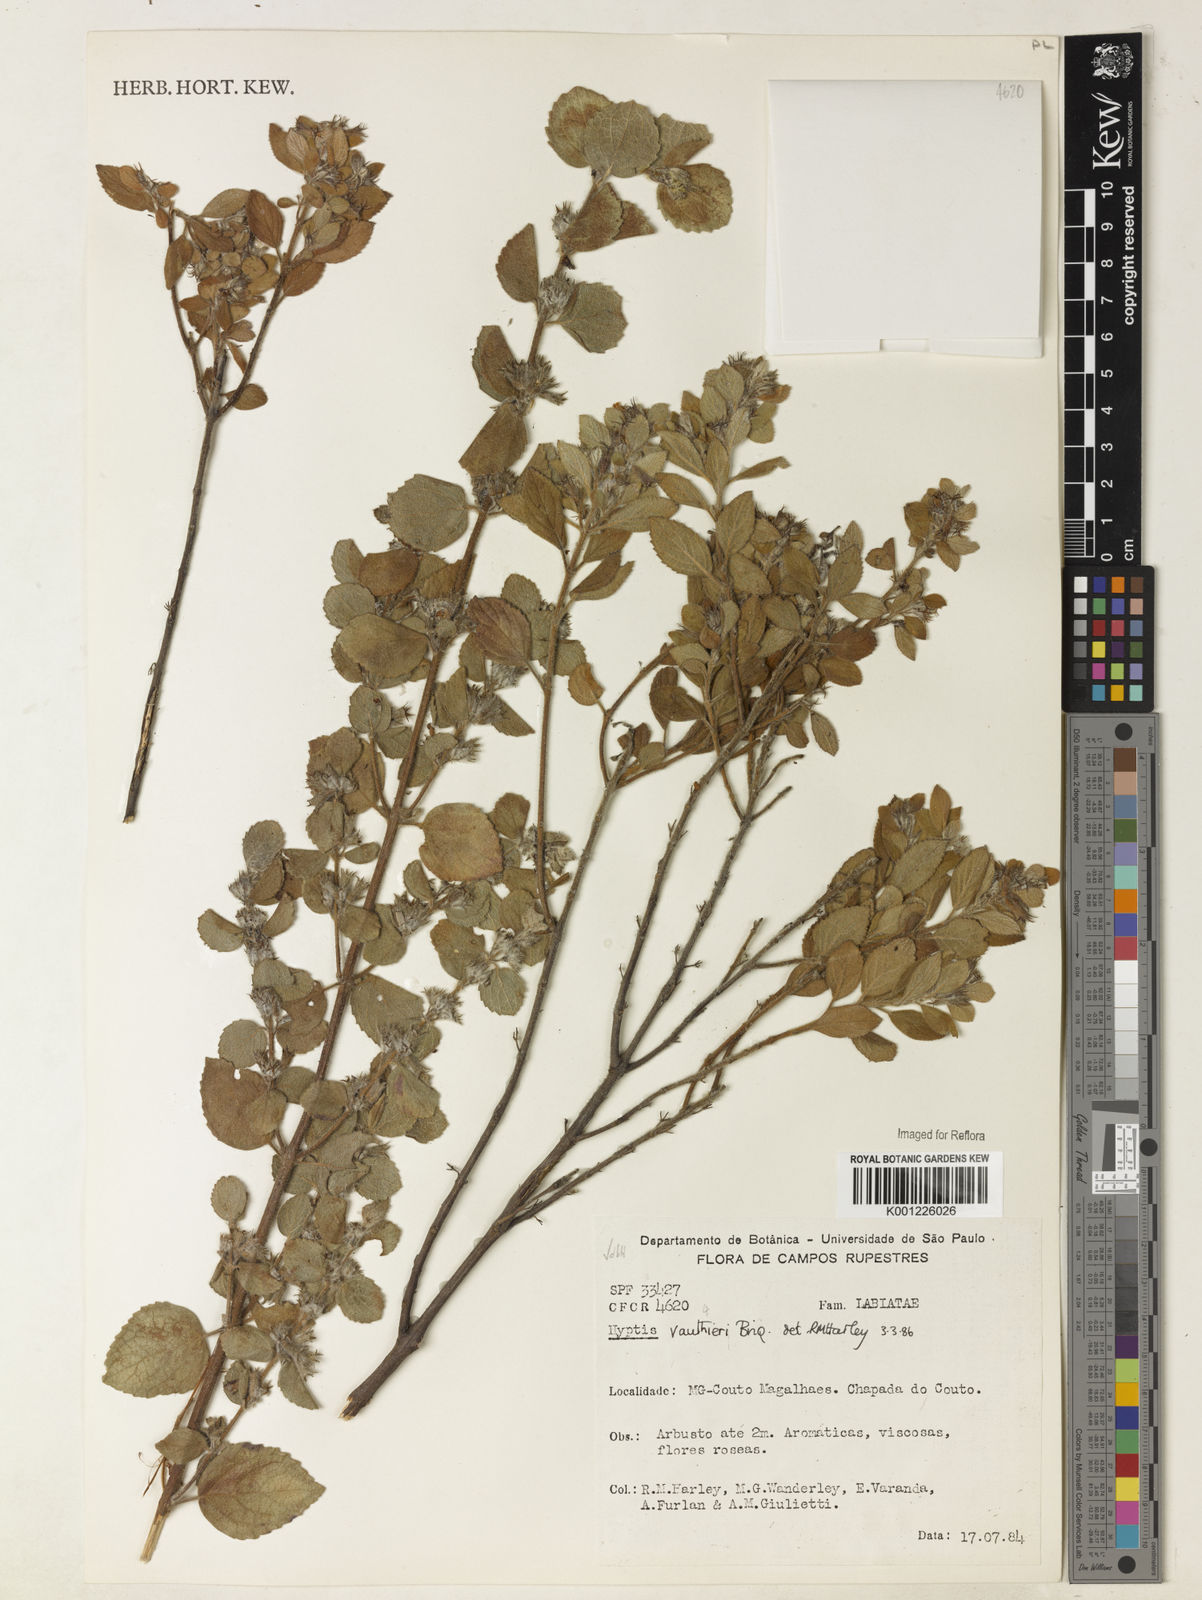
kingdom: Plantae
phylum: Tracheophyta
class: Magnoliopsida
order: Lamiales
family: Lamiaceae
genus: Hyptidendron
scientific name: Hyptidendron vauthieri
